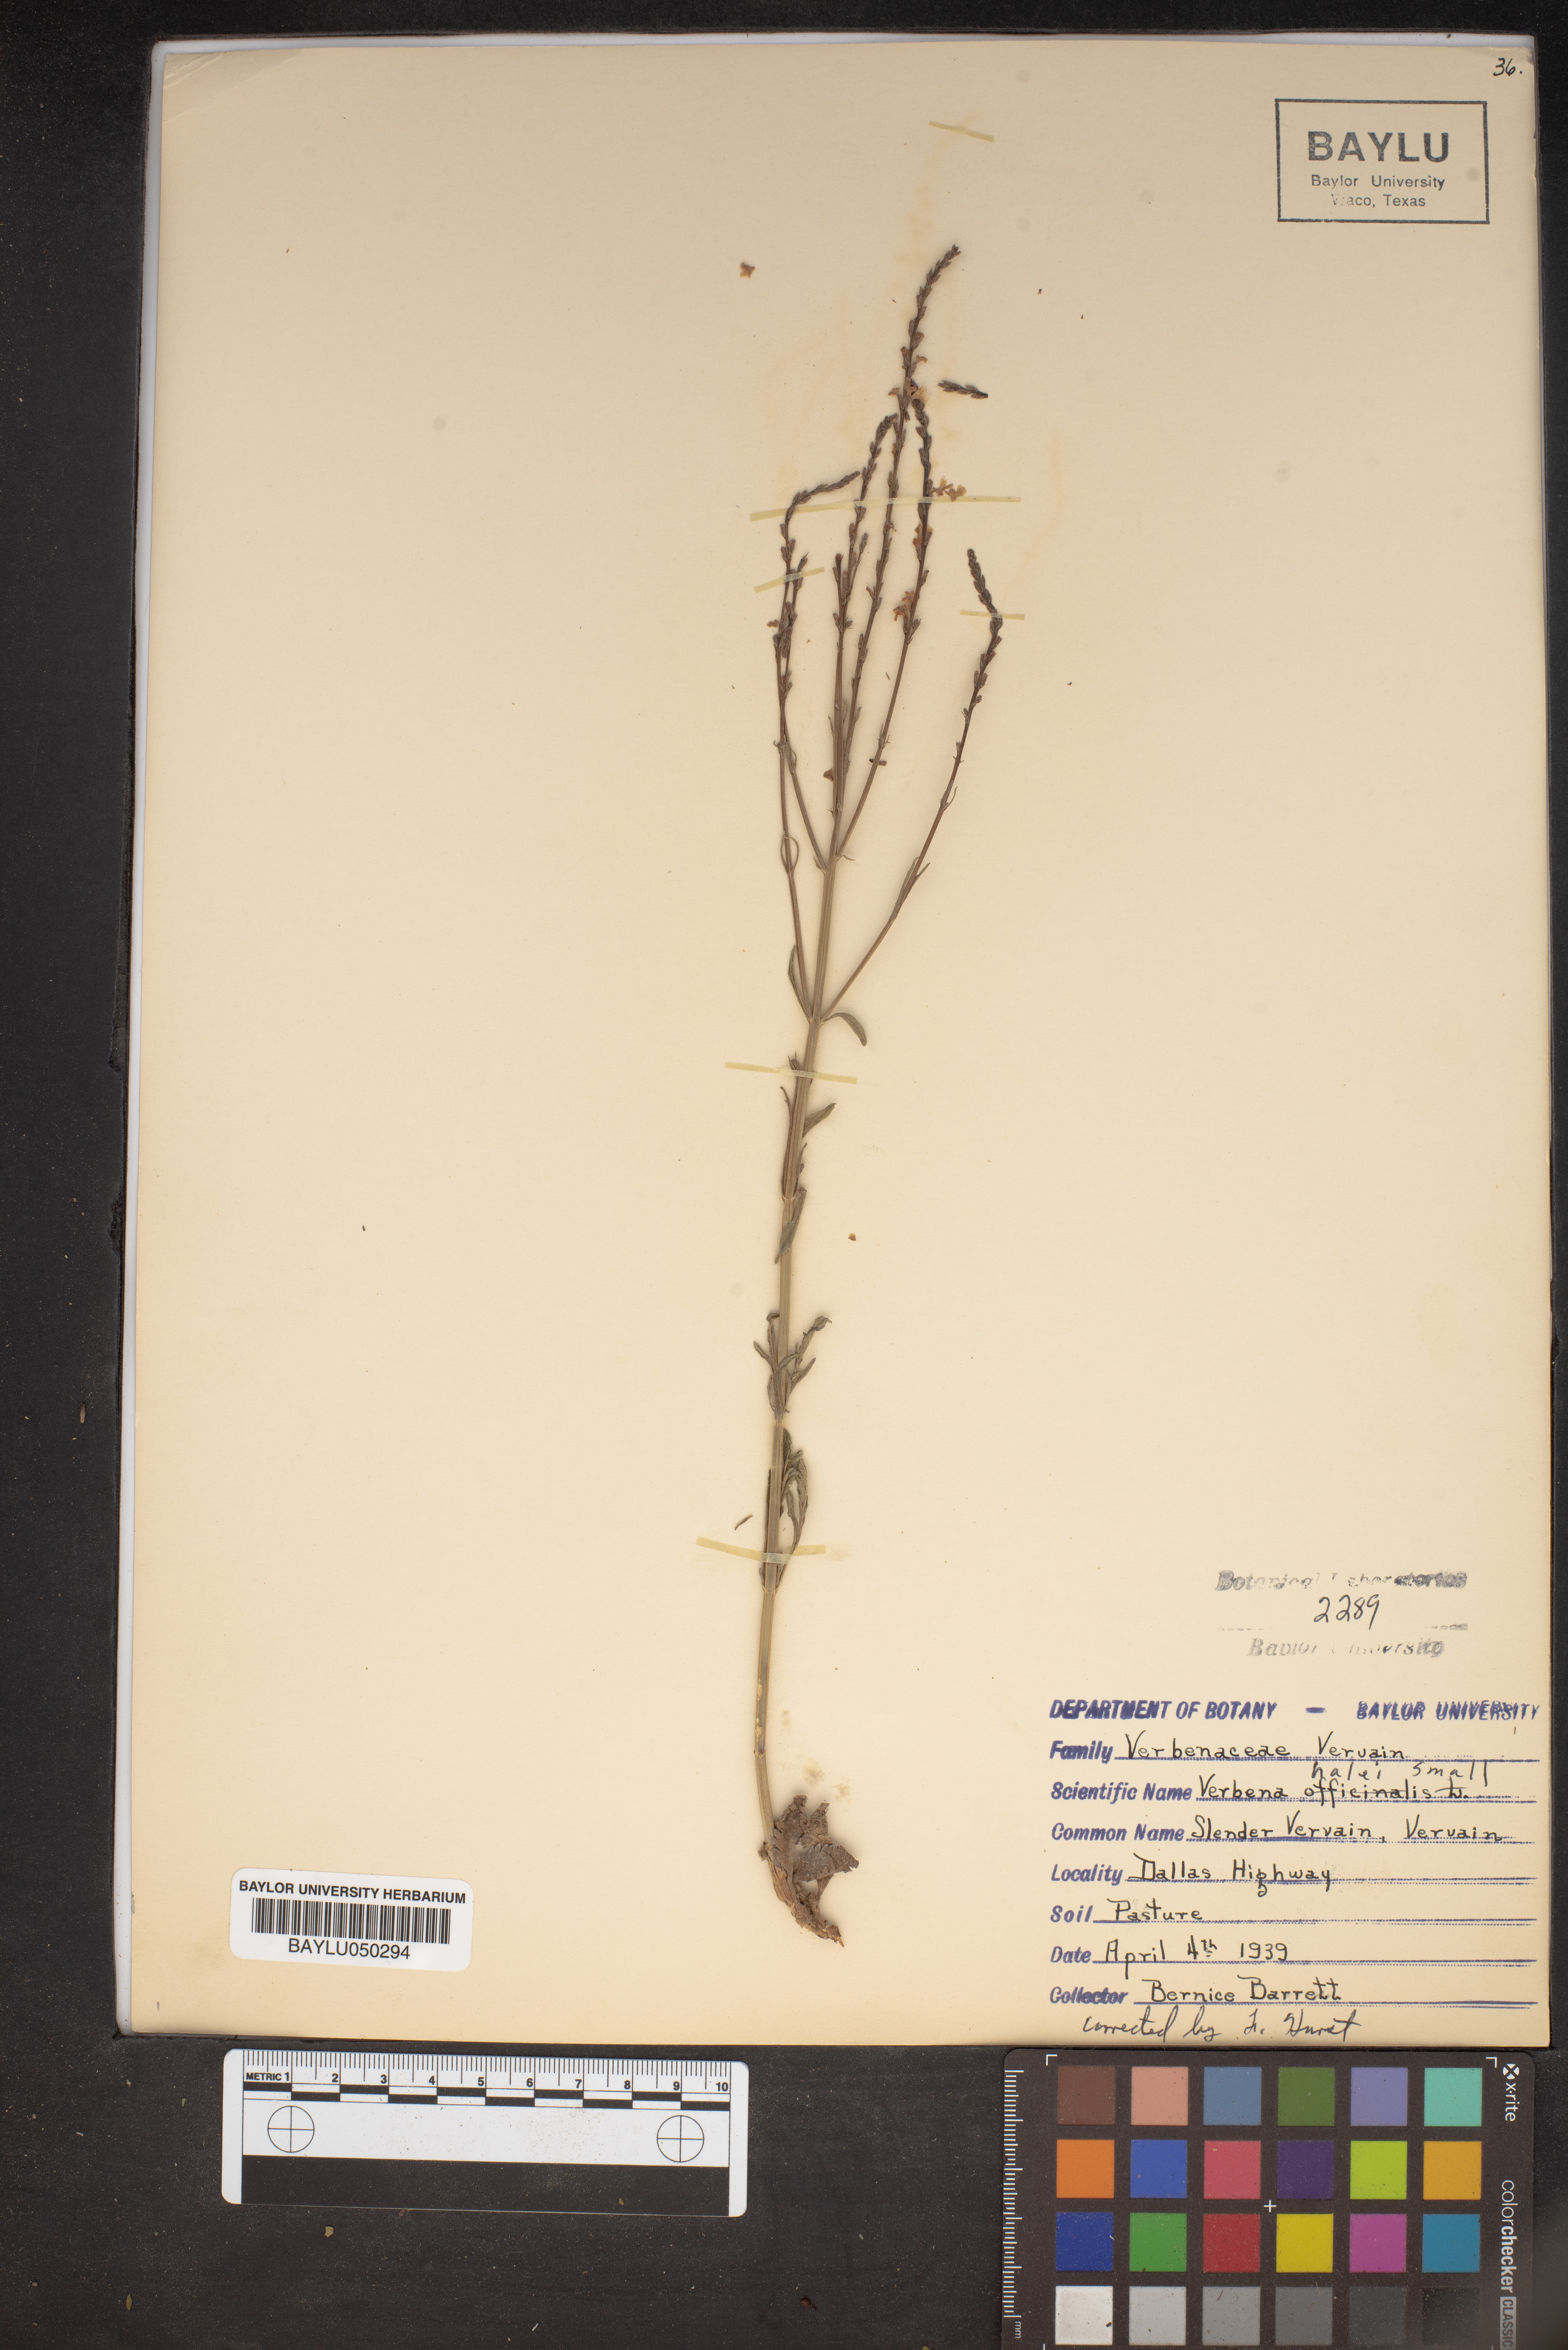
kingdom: Plantae
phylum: Tracheophyta
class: Magnoliopsida
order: Lamiales
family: Verbenaceae
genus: Verbena
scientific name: Verbena halei
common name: Texas vervain
